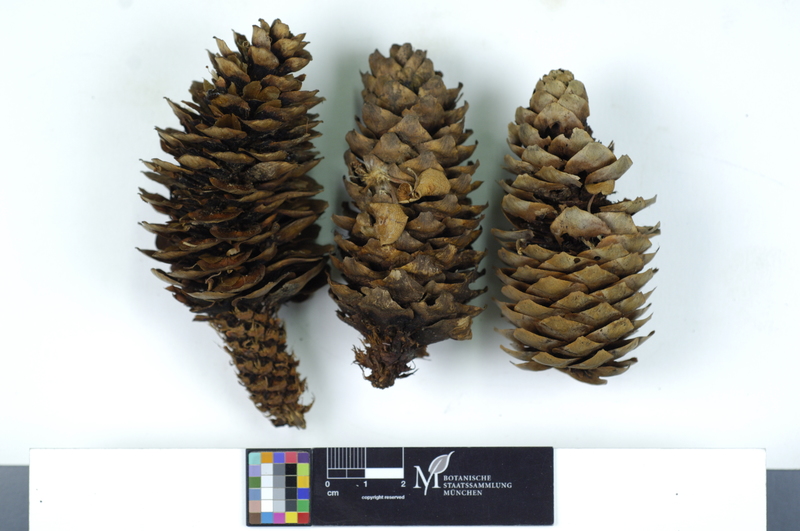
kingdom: Plantae
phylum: Tracheophyta
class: Pinopsida
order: Pinales
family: Pinaceae
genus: Picea
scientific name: Picea
